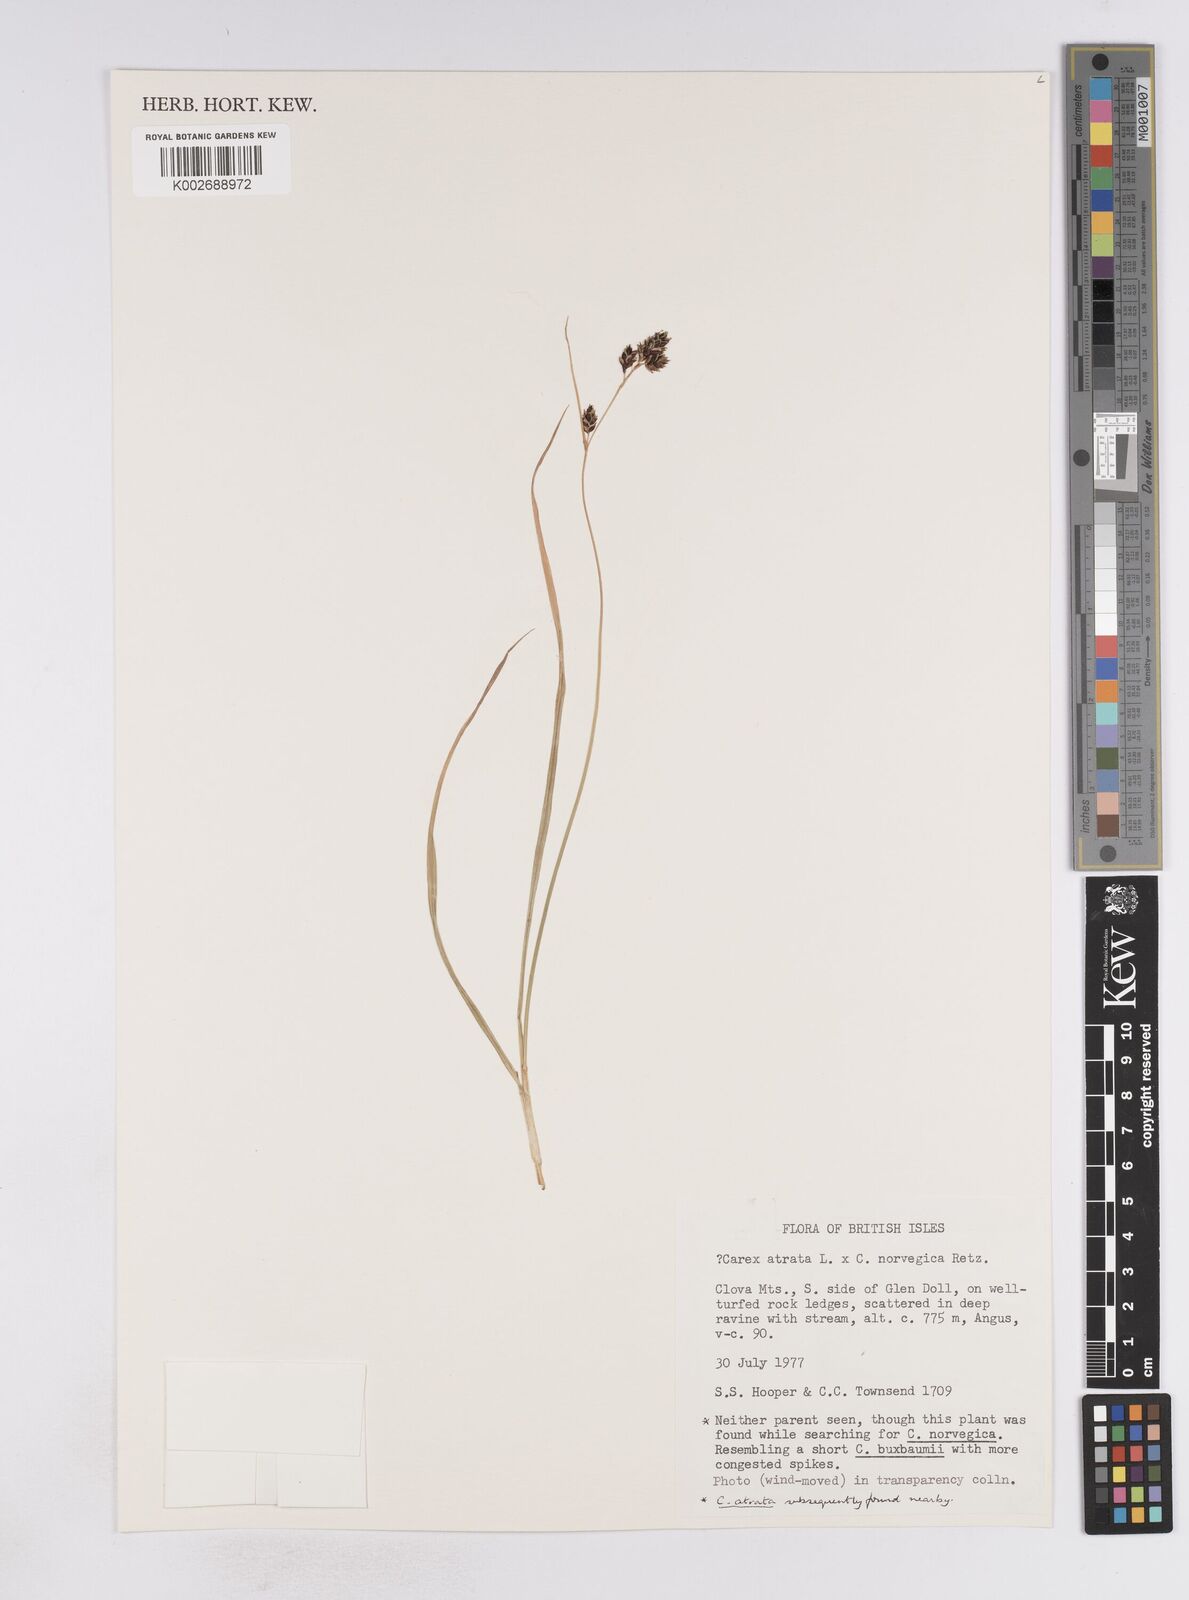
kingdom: Plantae
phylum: Tracheophyta
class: Liliopsida
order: Poales
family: Cyperaceae
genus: Carex
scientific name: Carex atrata
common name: Black alpine sedge
